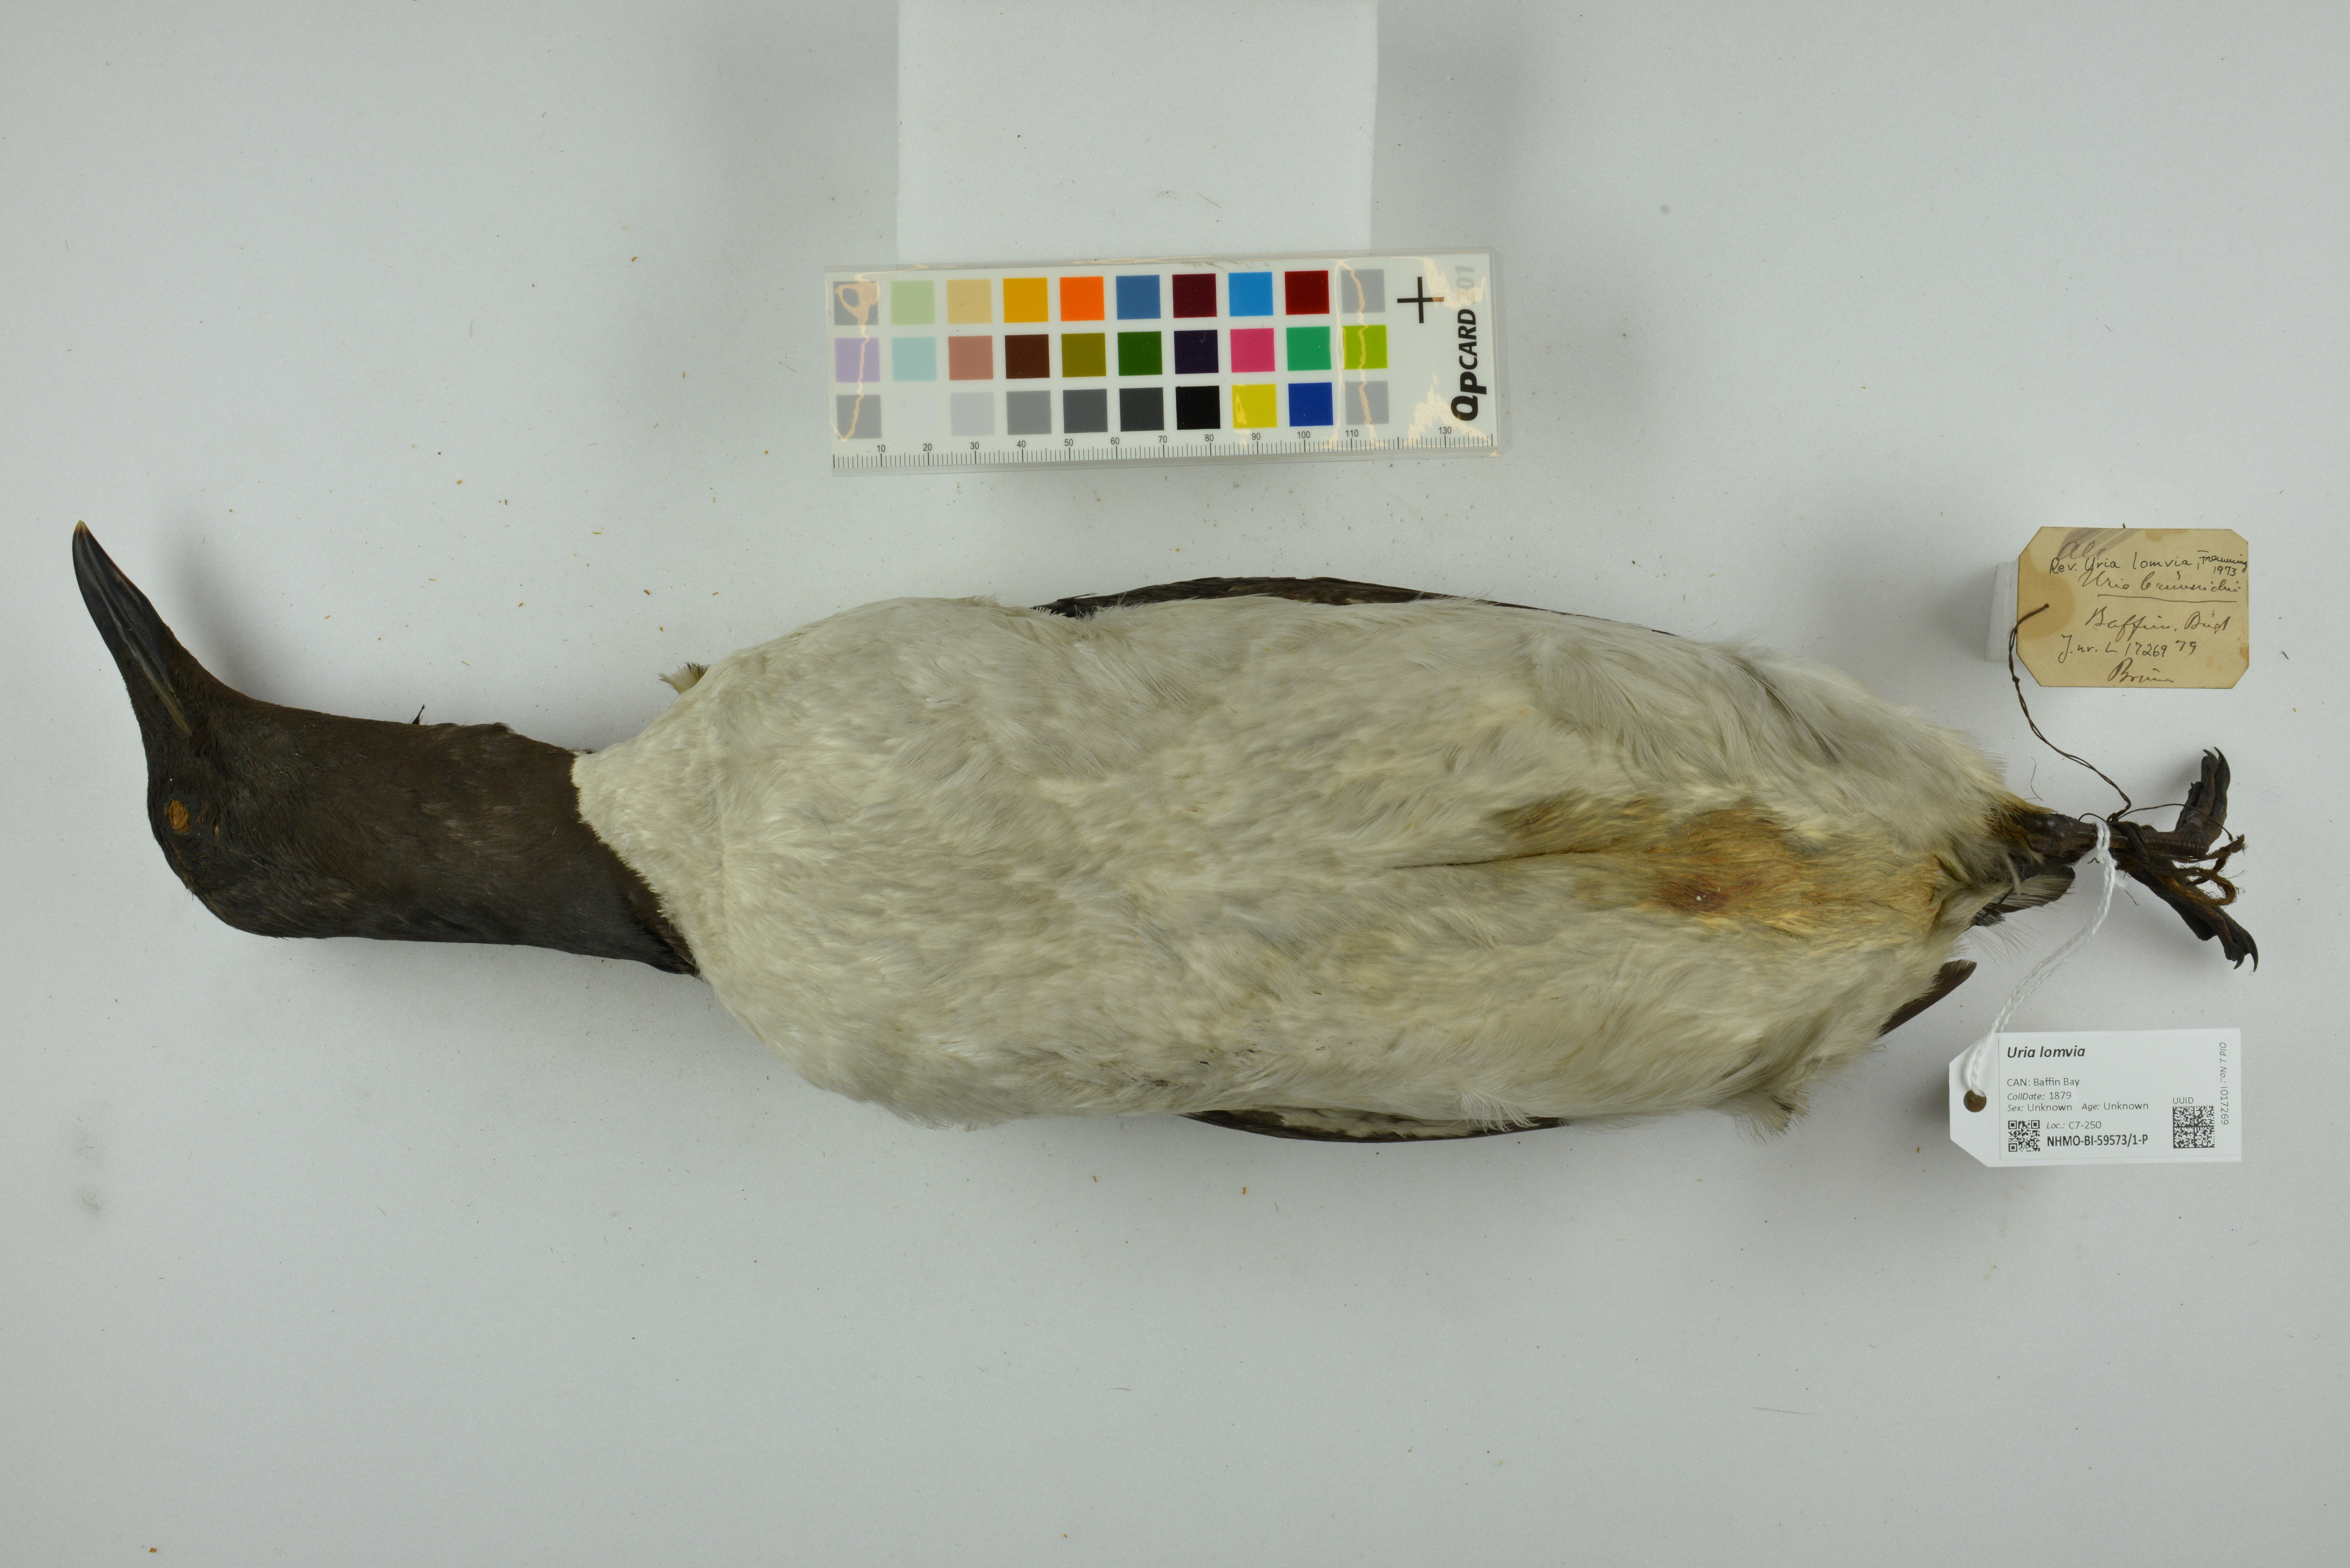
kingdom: Animalia
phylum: Chordata
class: Aves
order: Charadriiformes
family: Alcidae
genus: Uria
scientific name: Uria lomvia
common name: Thick-billed murre
